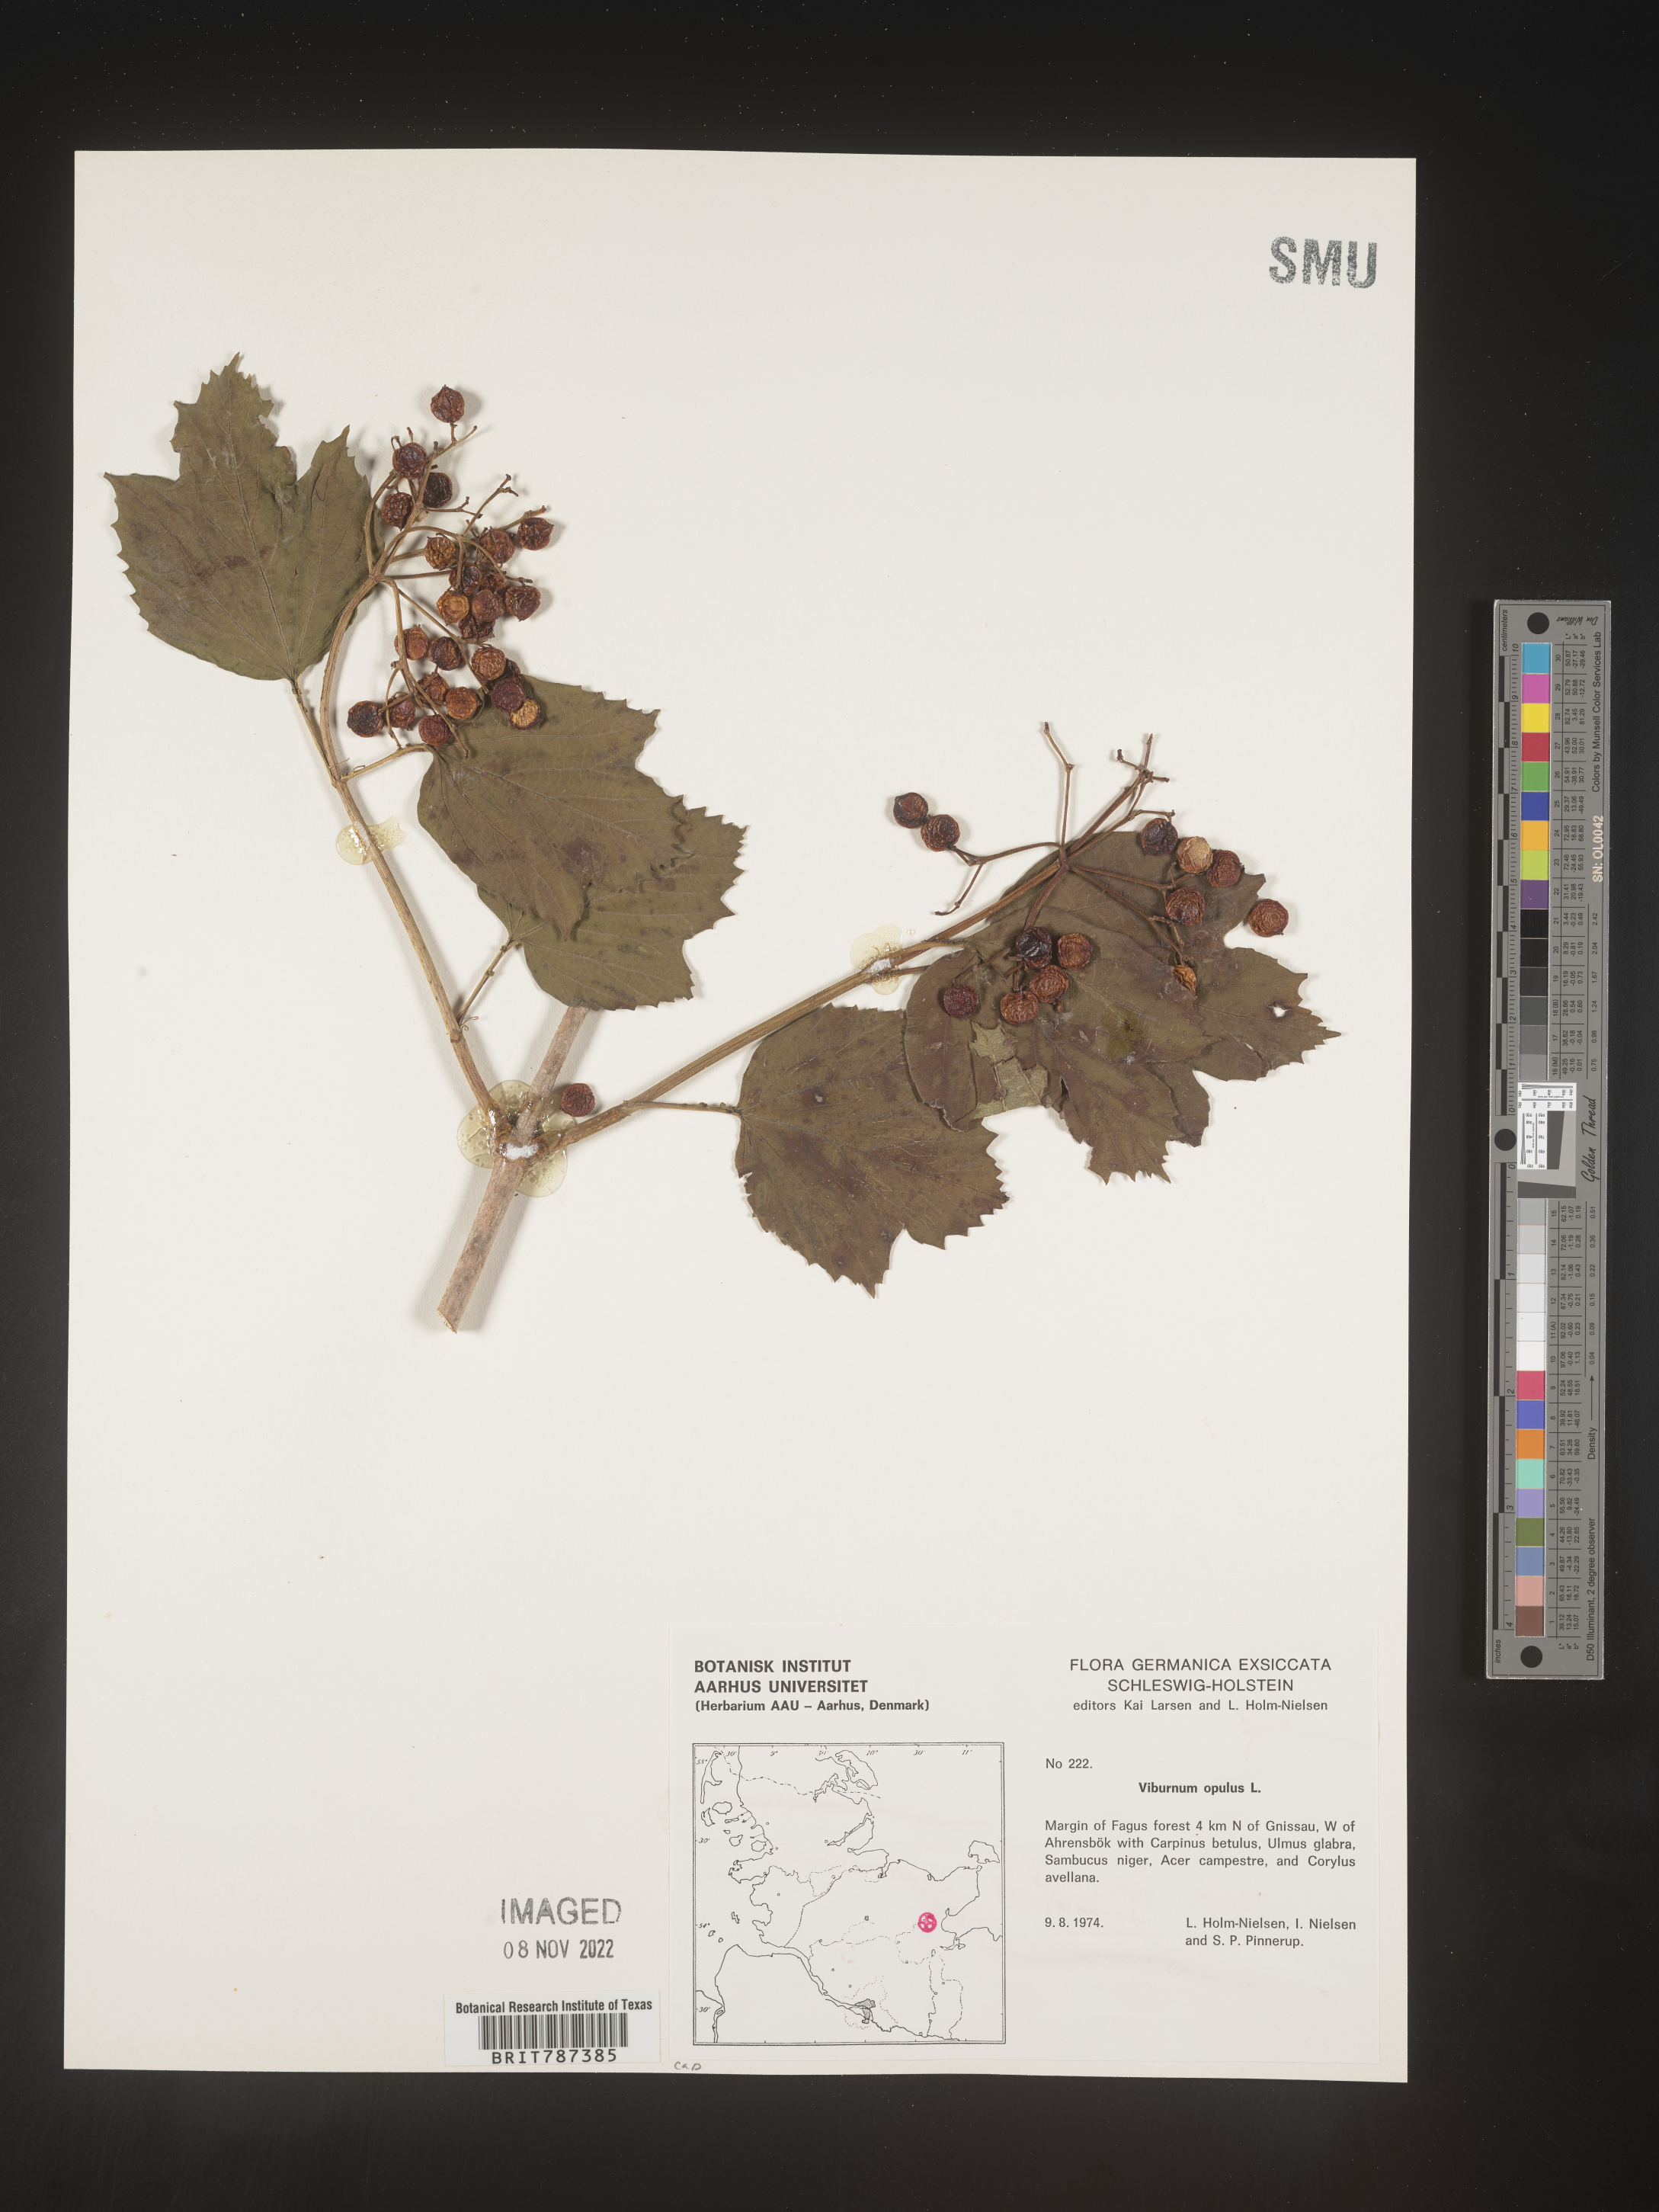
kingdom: Plantae
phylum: Tracheophyta
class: Magnoliopsida
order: Dipsacales
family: Viburnaceae
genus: Viburnum
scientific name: Viburnum opulus
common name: Guelder-rose
